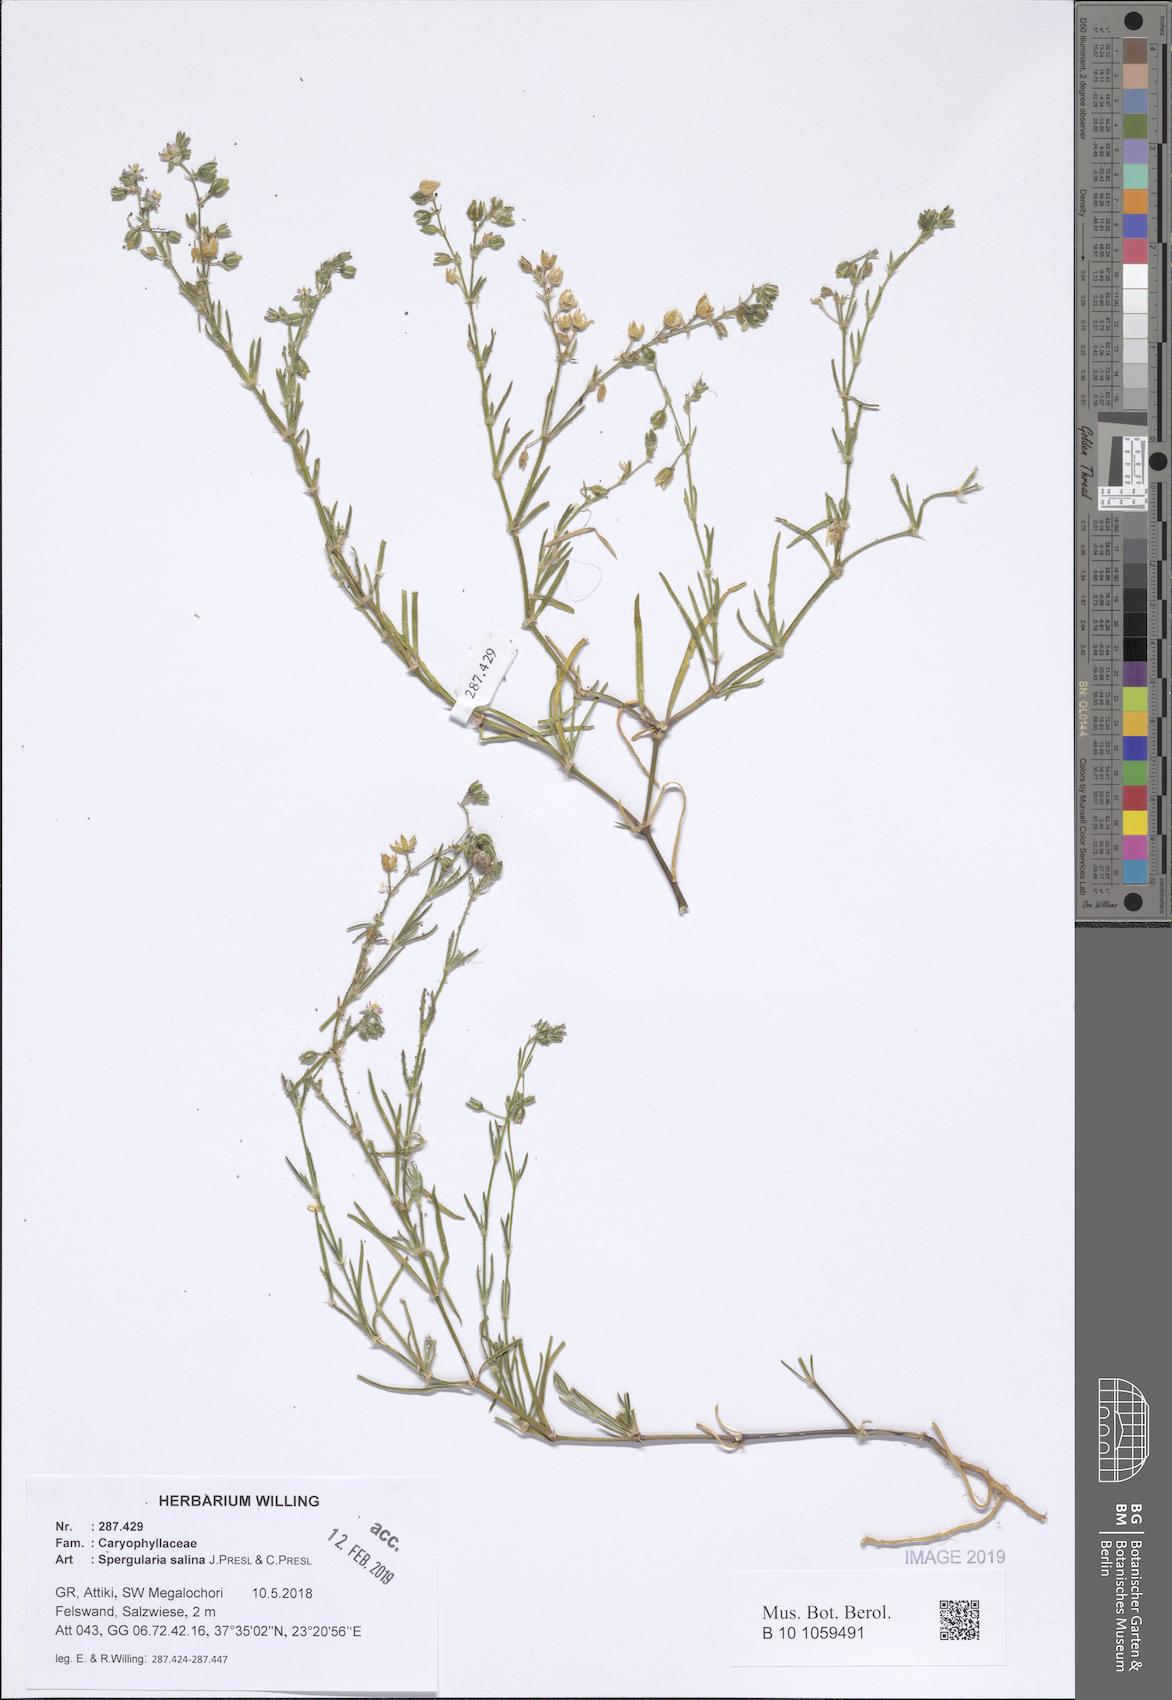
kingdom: Plantae
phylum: Tracheophyta
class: Magnoliopsida
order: Caryophyllales
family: Caryophyllaceae
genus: Spergularia
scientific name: Spergularia marina
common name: Lesser sea-spurrey
